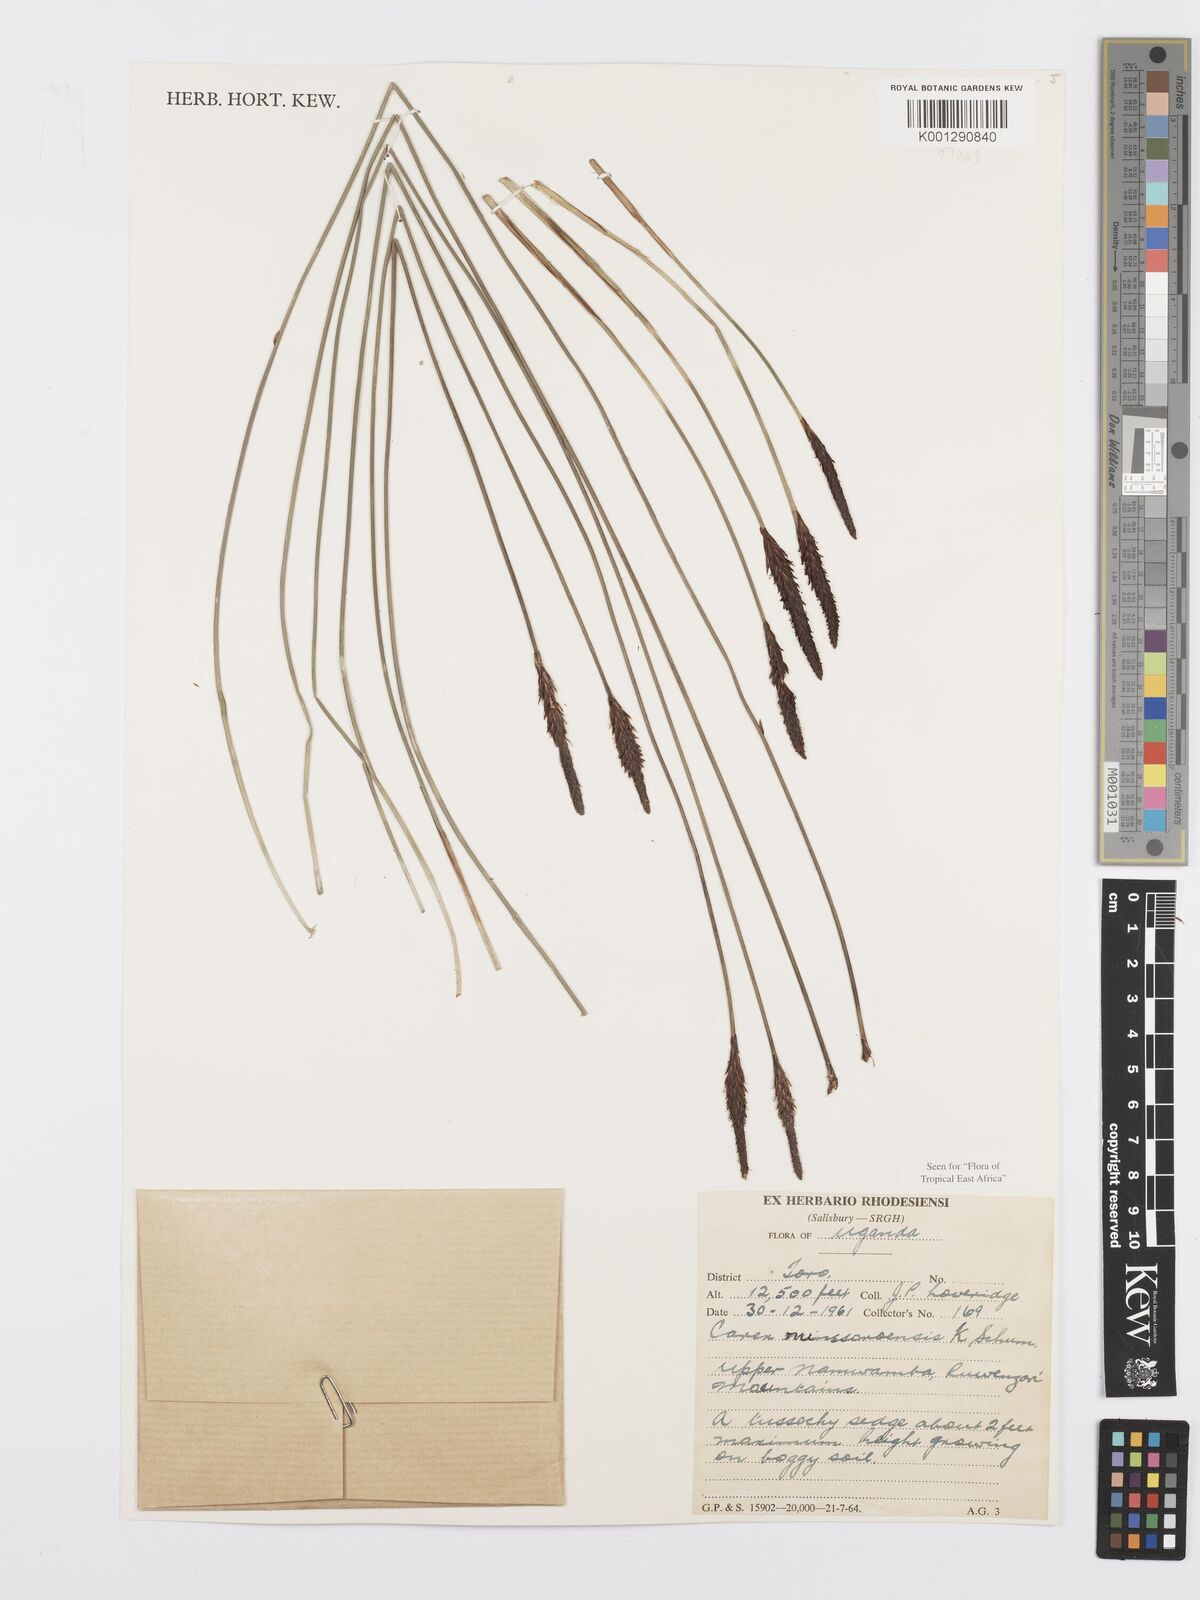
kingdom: Plantae
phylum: Tracheophyta
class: Liliopsida
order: Poales
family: Cyperaceae
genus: Carex
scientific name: Carex runssoroensis
